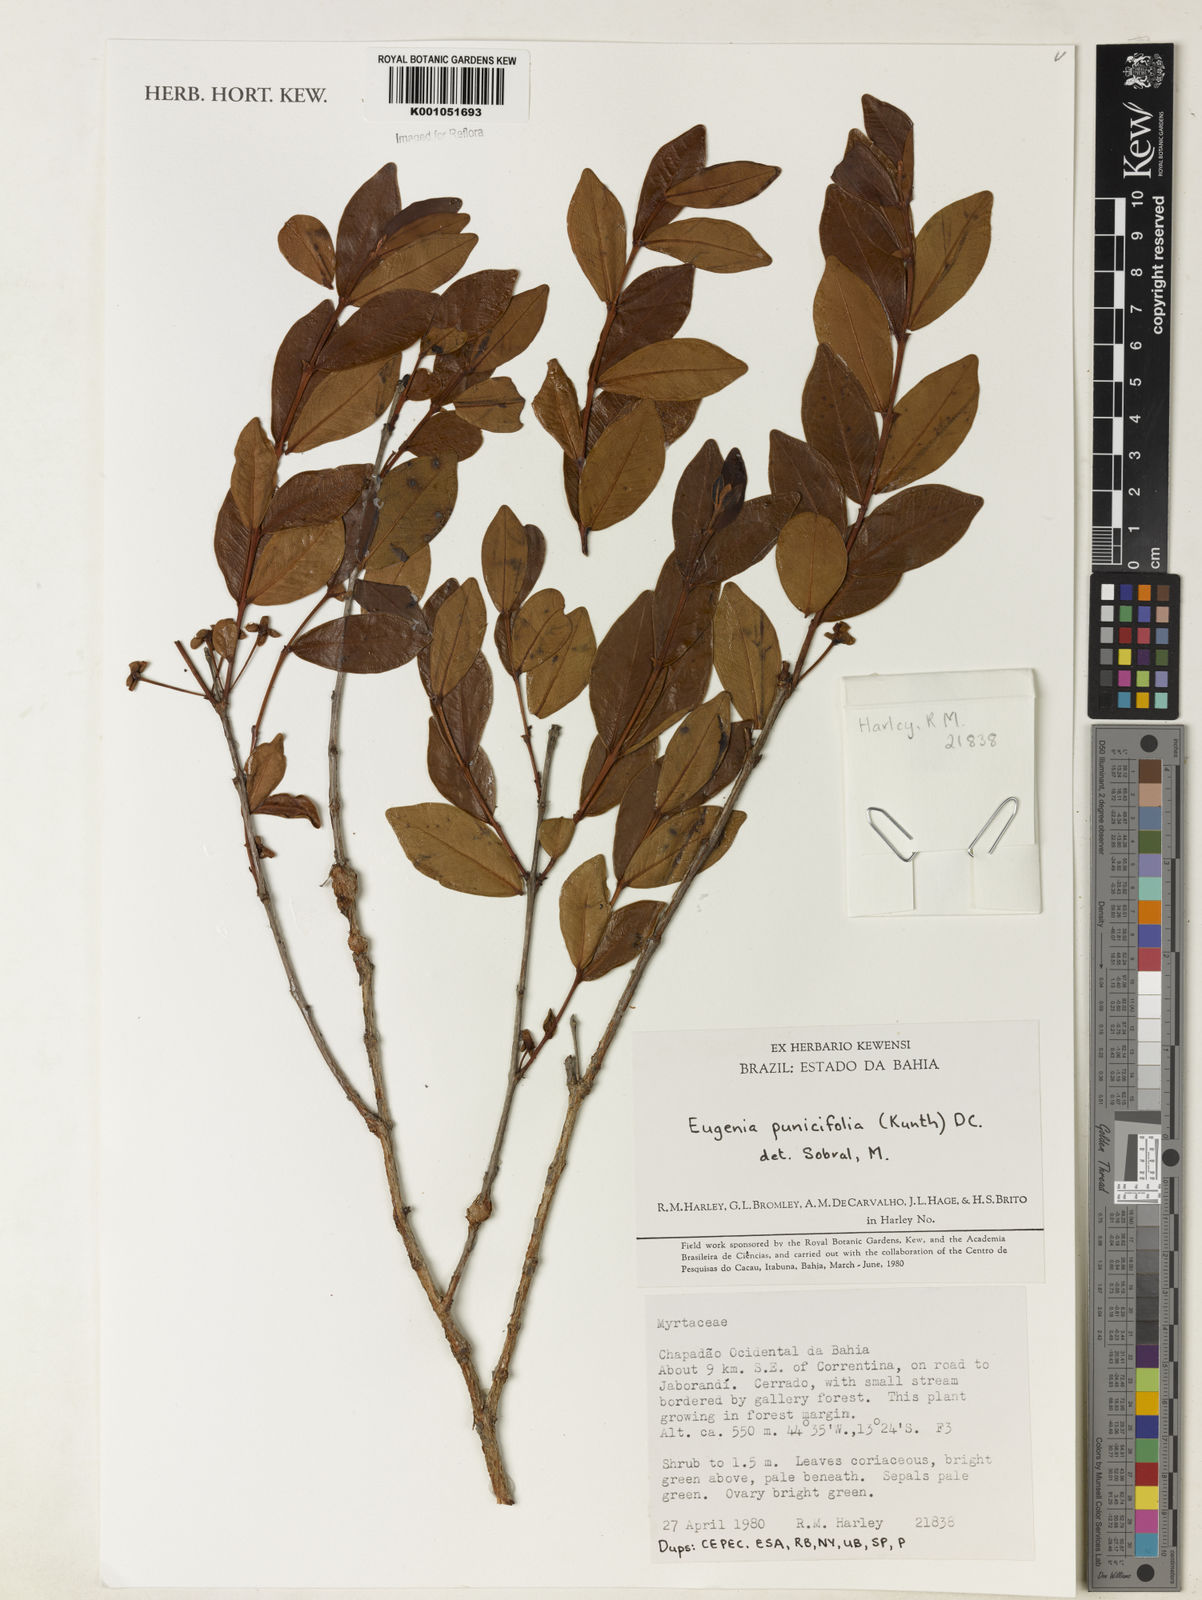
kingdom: Plantae
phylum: Tracheophyta
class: Magnoliopsida
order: Myrtales
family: Myrtaceae
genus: Eugenia
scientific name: Eugenia punicifolia
